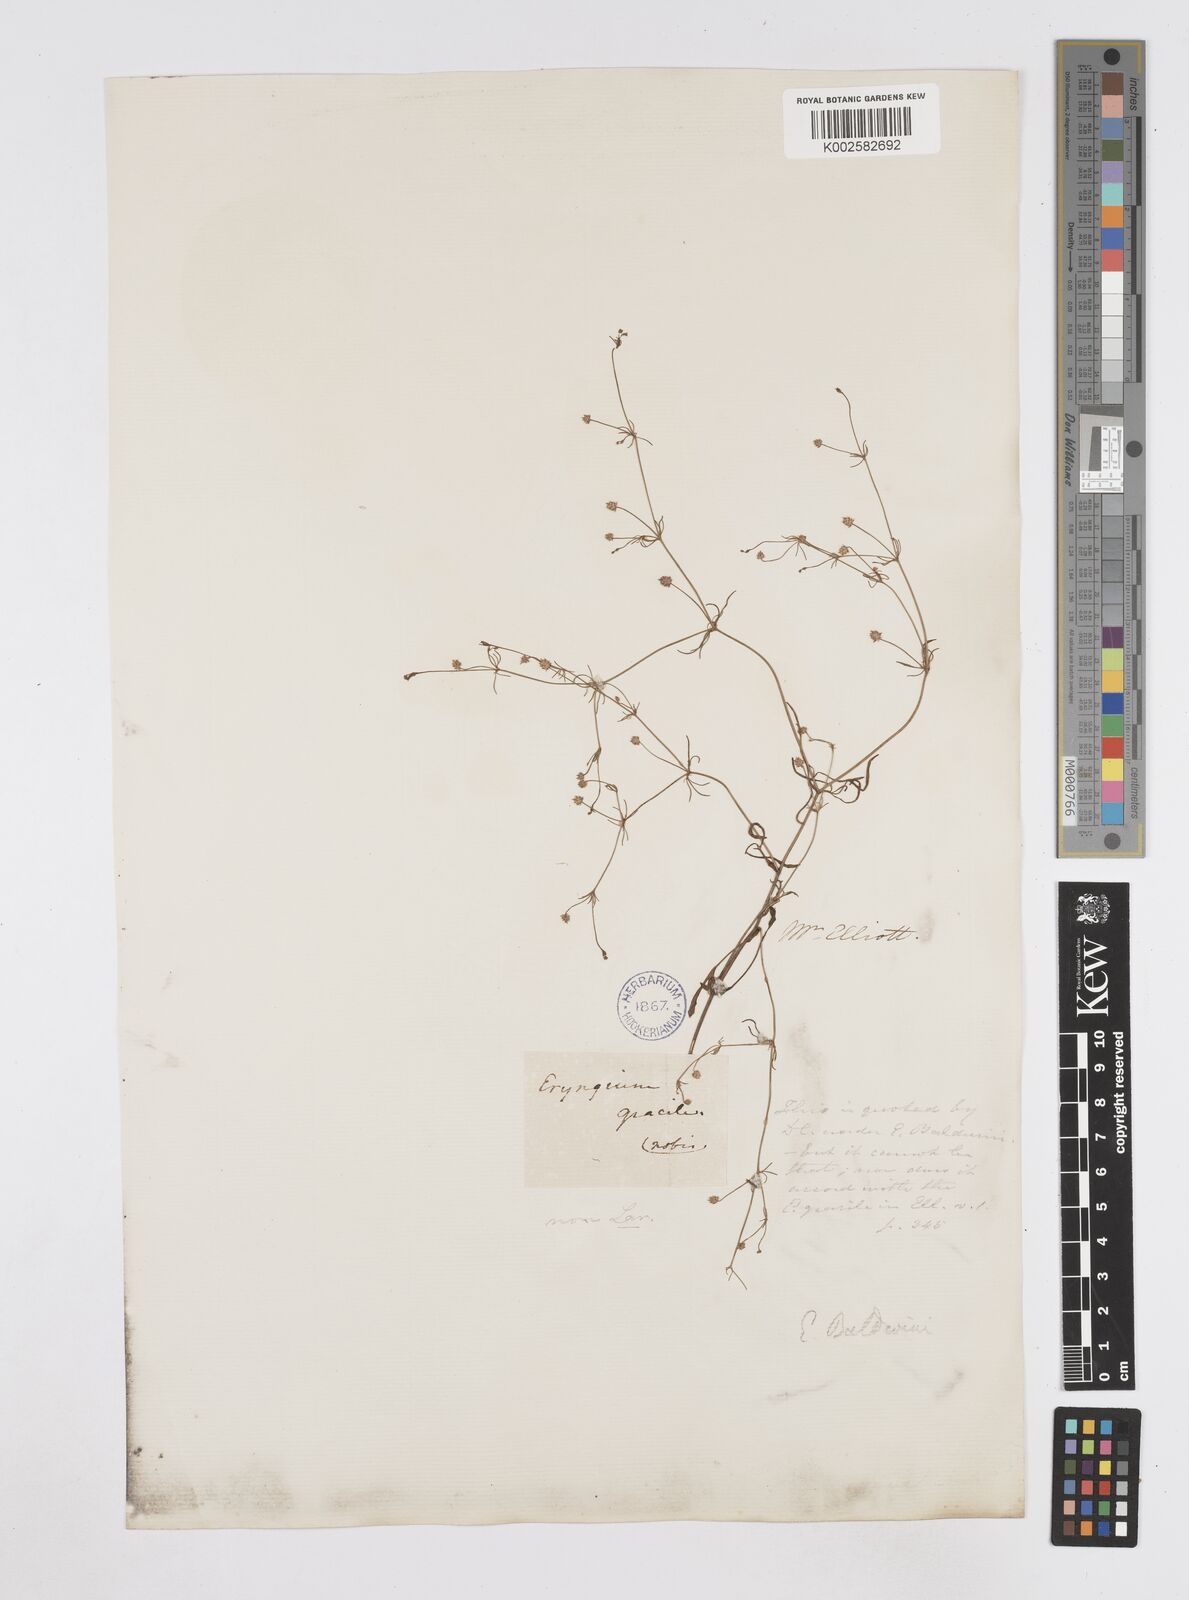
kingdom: Plantae
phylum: Tracheophyta
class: Magnoliopsida
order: Apiales
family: Apiaceae
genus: Eryngium
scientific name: Eryngium baldwinii
